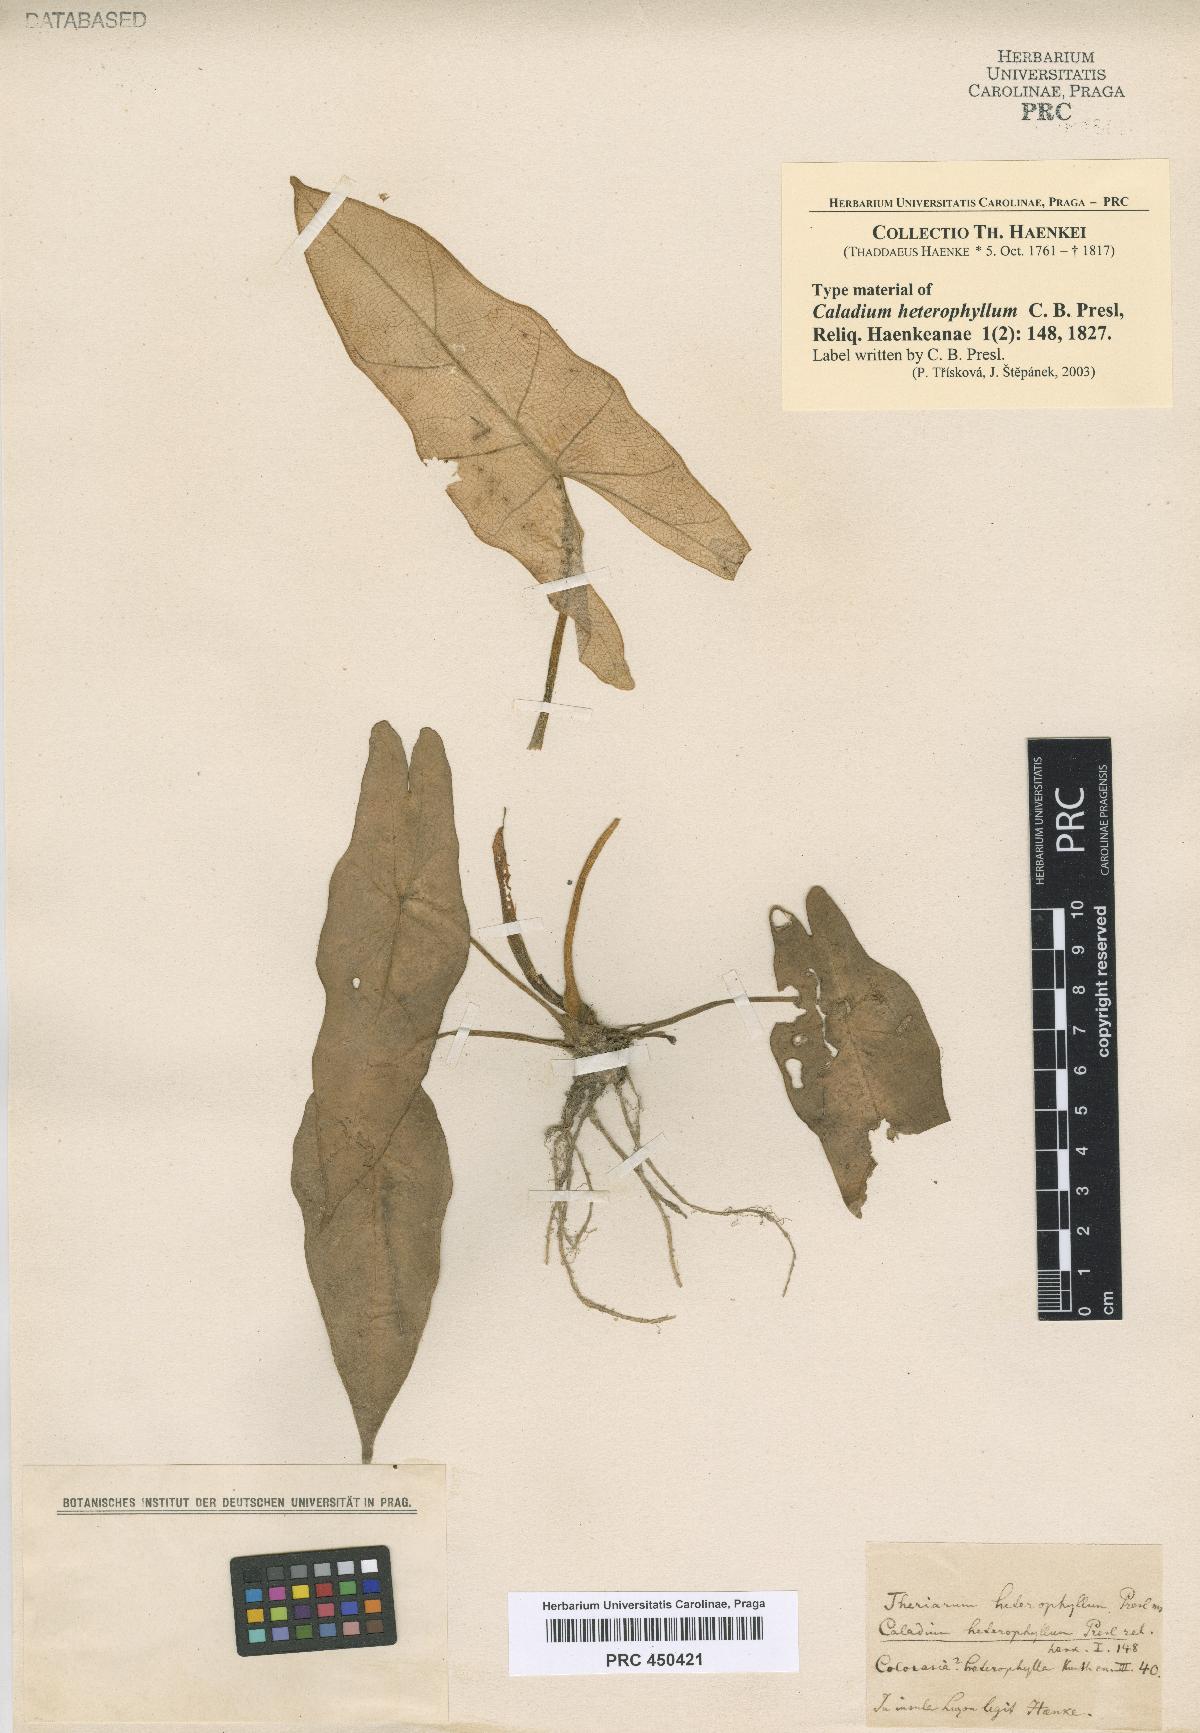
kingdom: Plantae
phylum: Tracheophyta
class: Liliopsida
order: Alismatales
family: Araceae
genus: Alocasia
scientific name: Alocasia heterophylla
